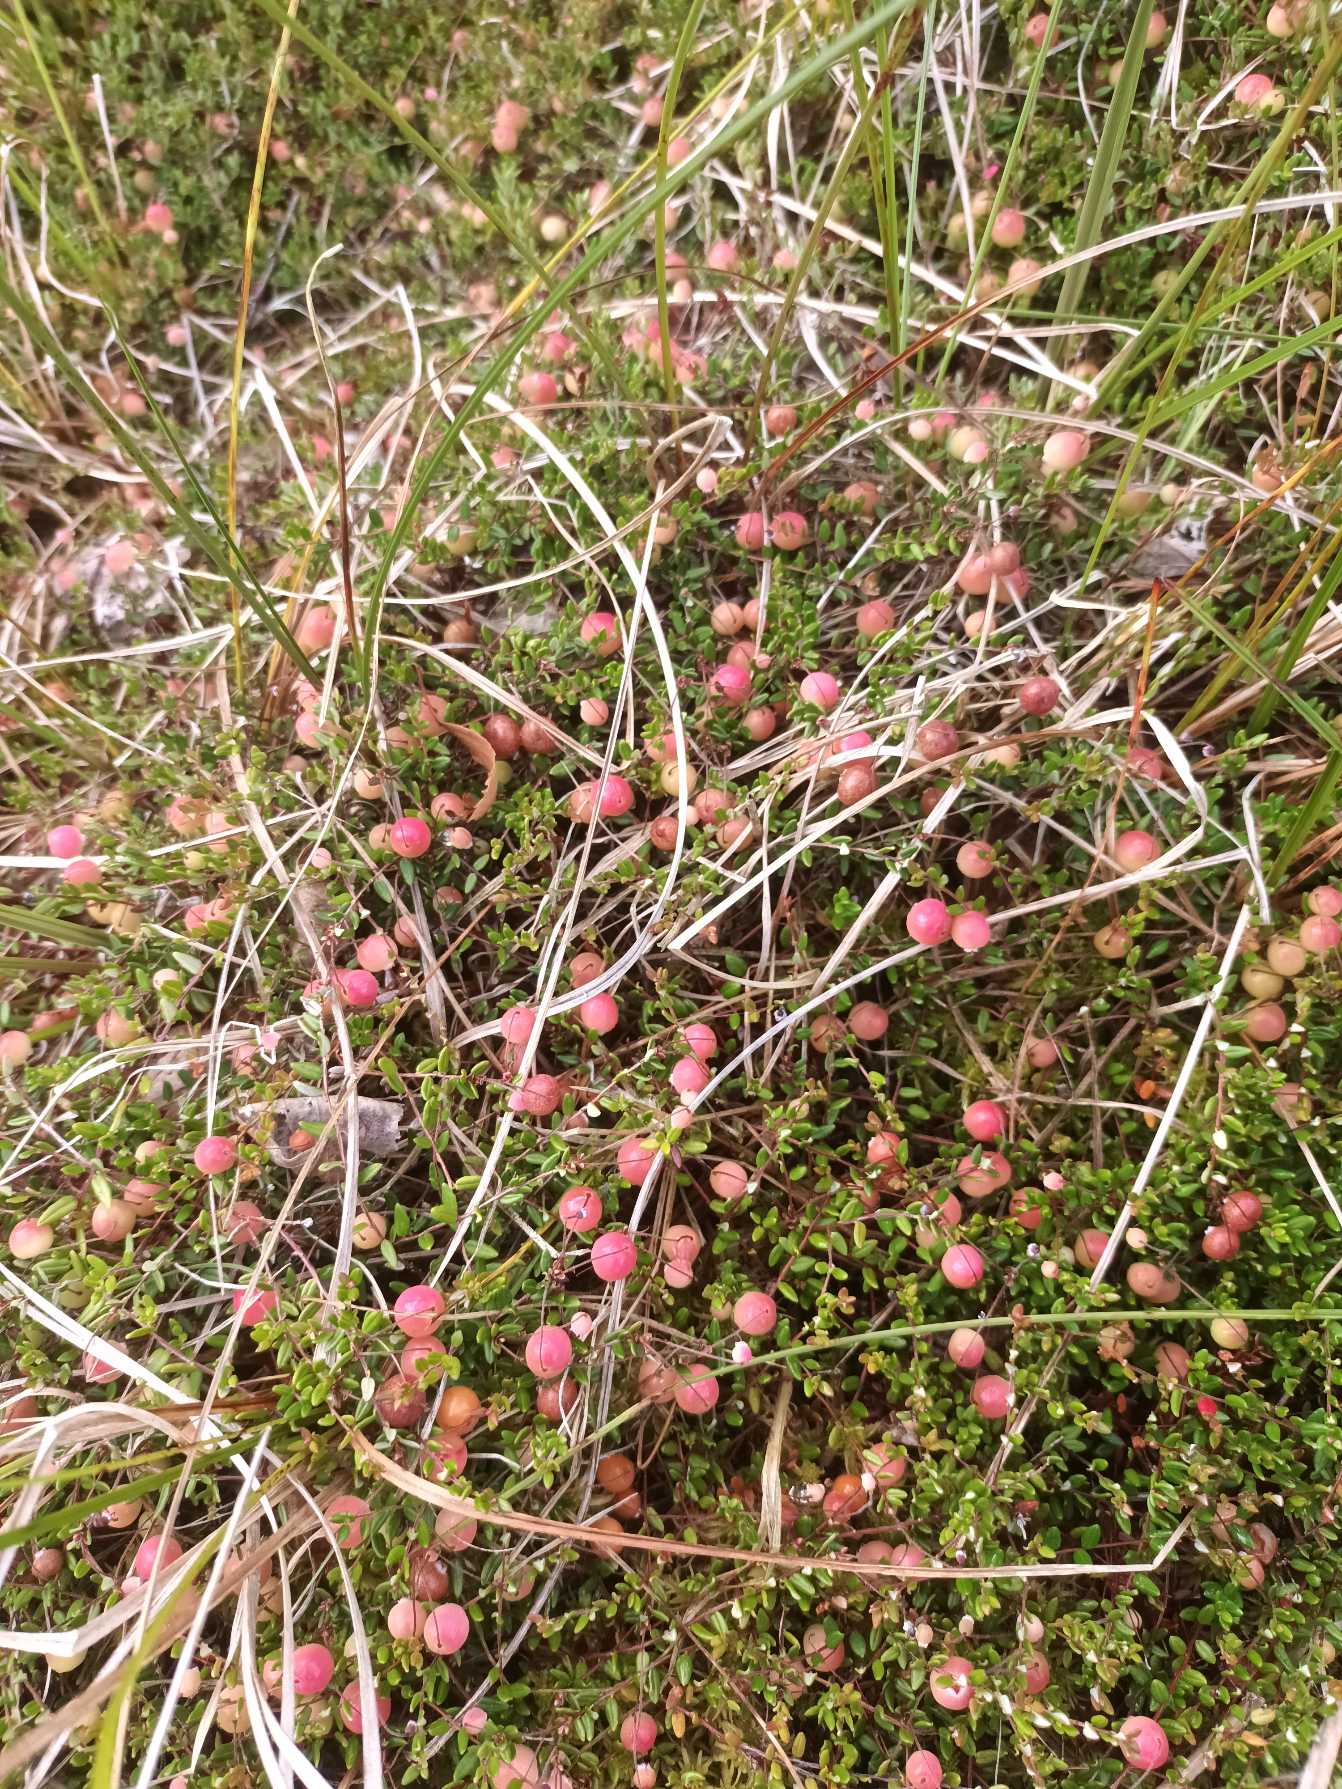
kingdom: Plantae
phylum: Tracheophyta
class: Magnoliopsida
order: Ericales
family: Ericaceae
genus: Vaccinium
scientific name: Vaccinium oxycoccos
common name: Tranebær
